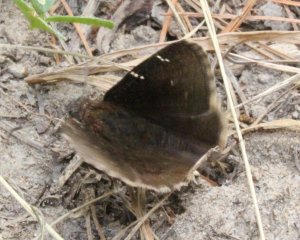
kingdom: Animalia
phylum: Arthropoda
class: Insecta
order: Lepidoptera
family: Hesperiidae
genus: Autochton
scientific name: Autochton
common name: Northern Cloudywing
